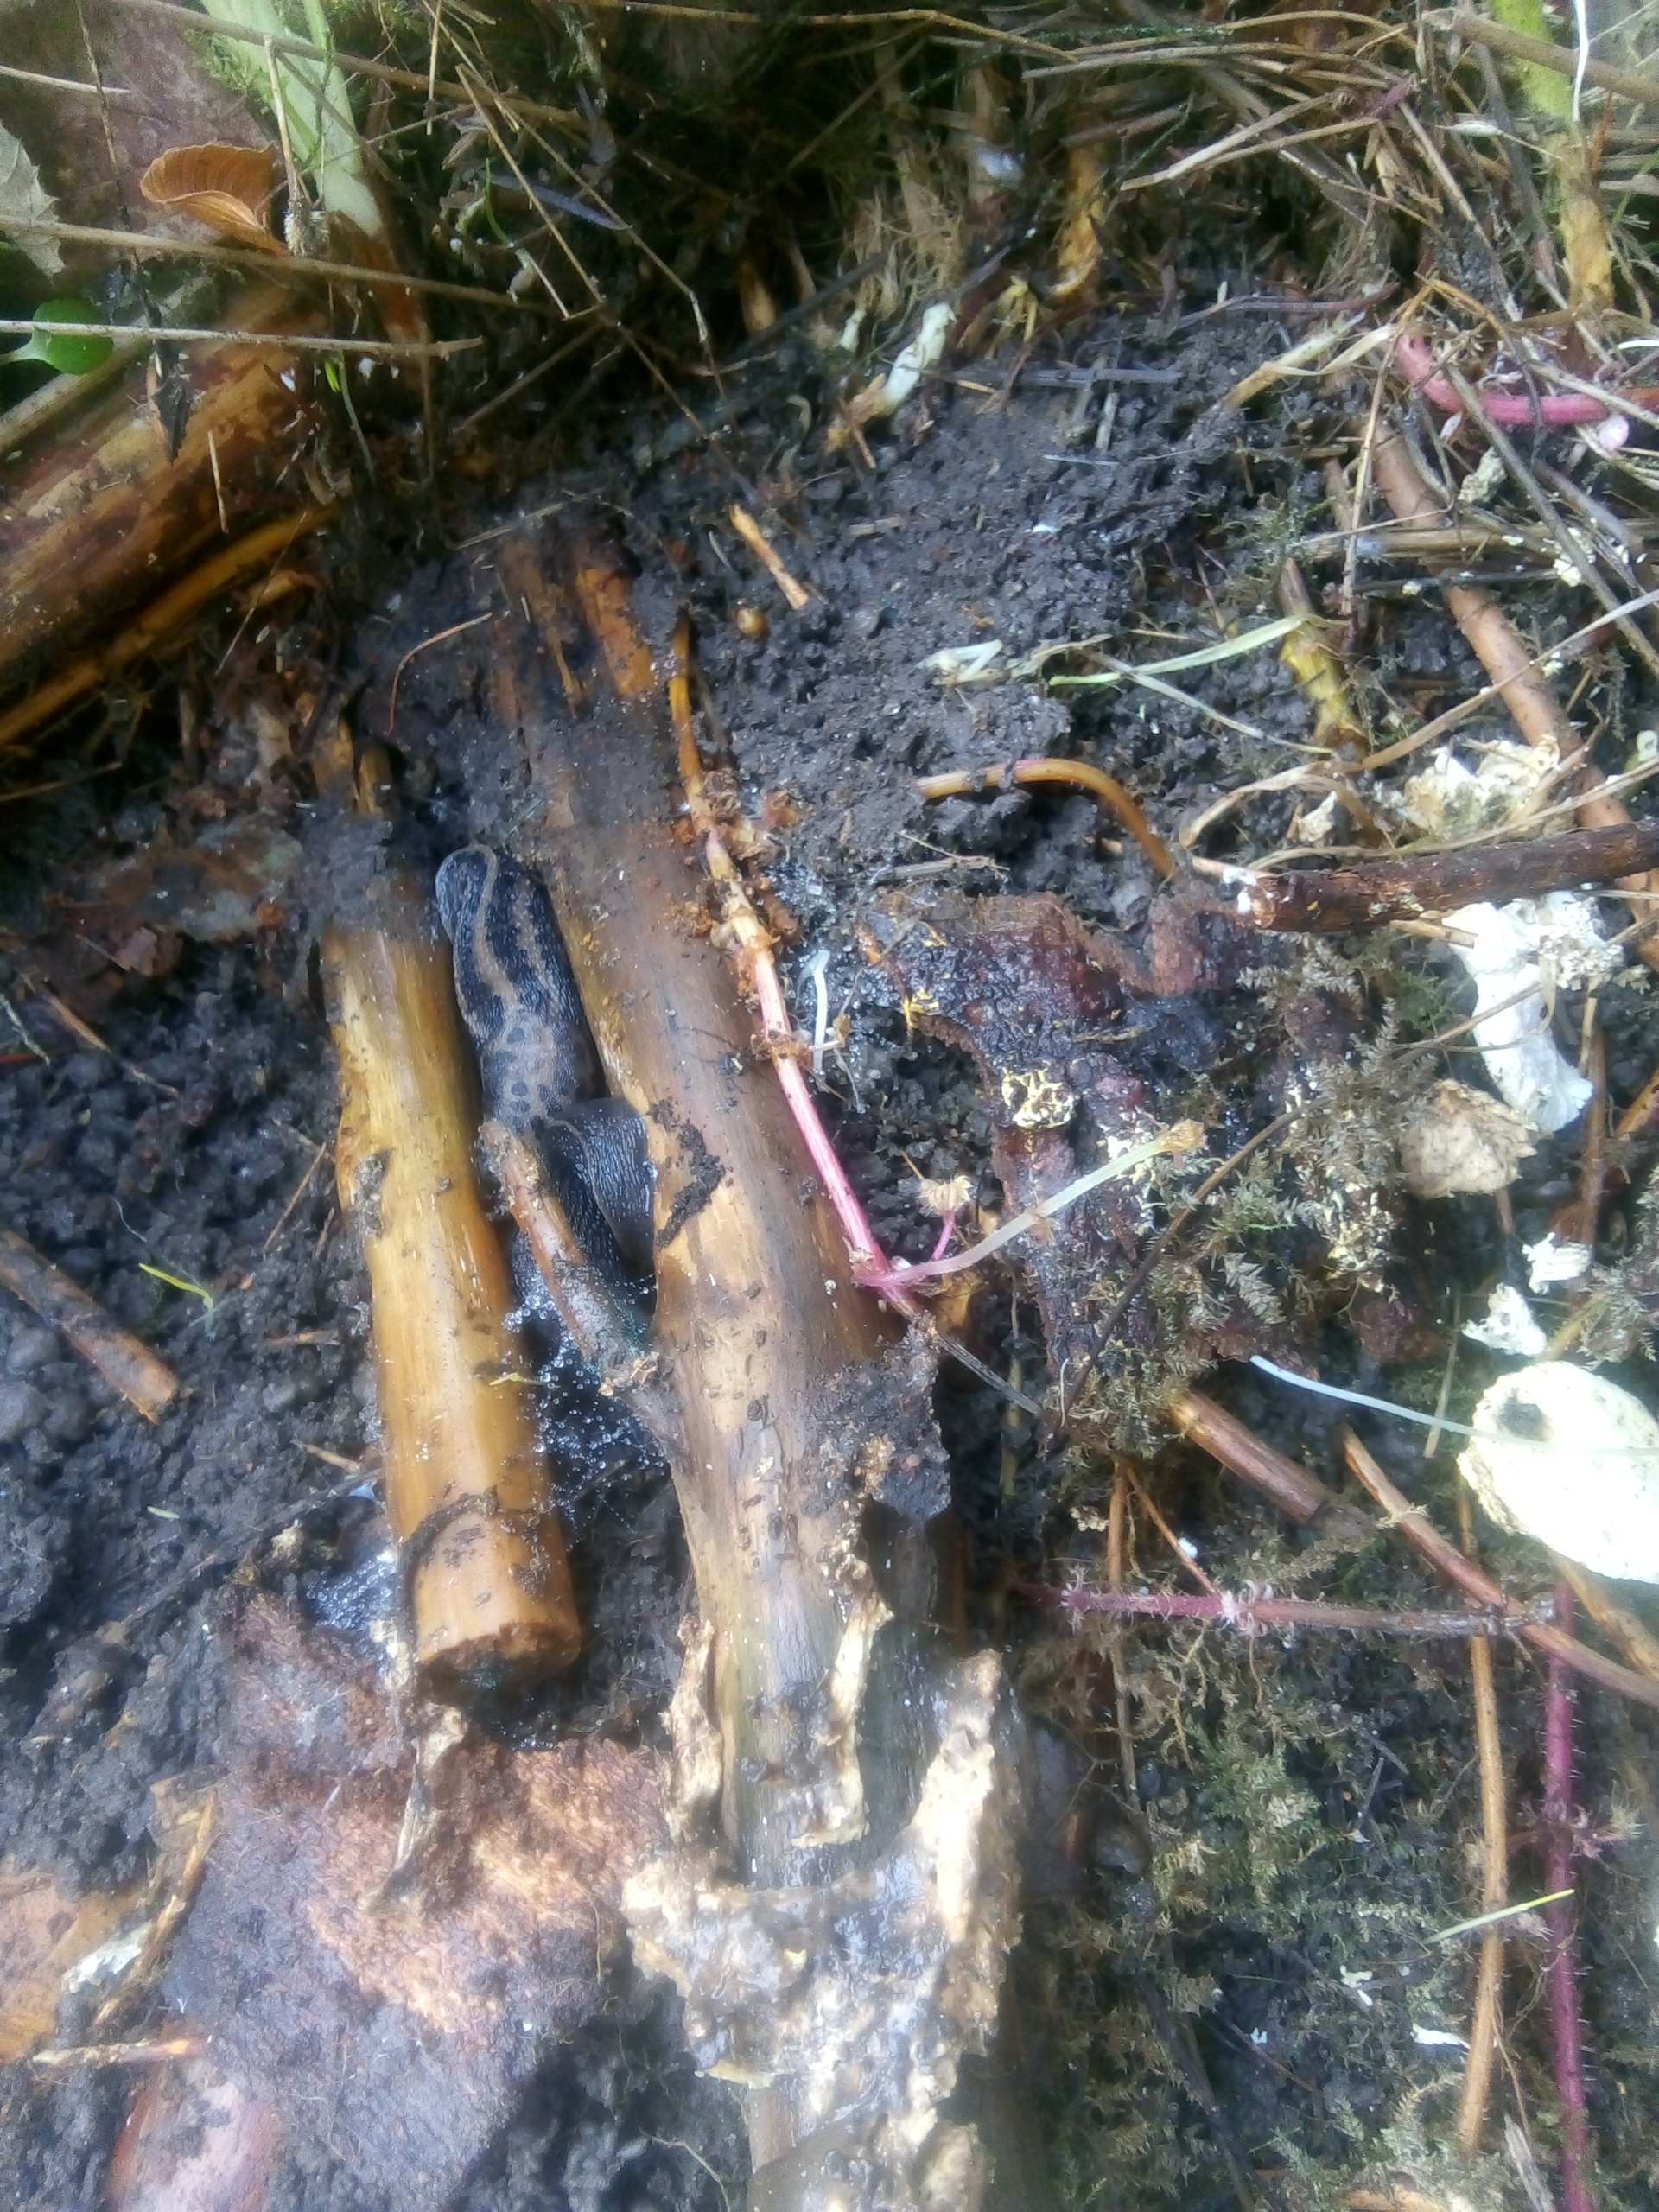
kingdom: Animalia
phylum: Mollusca
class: Gastropoda
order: Stylommatophora
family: Limacidae
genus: Limax
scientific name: Limax maximus
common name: Pantersnegl
